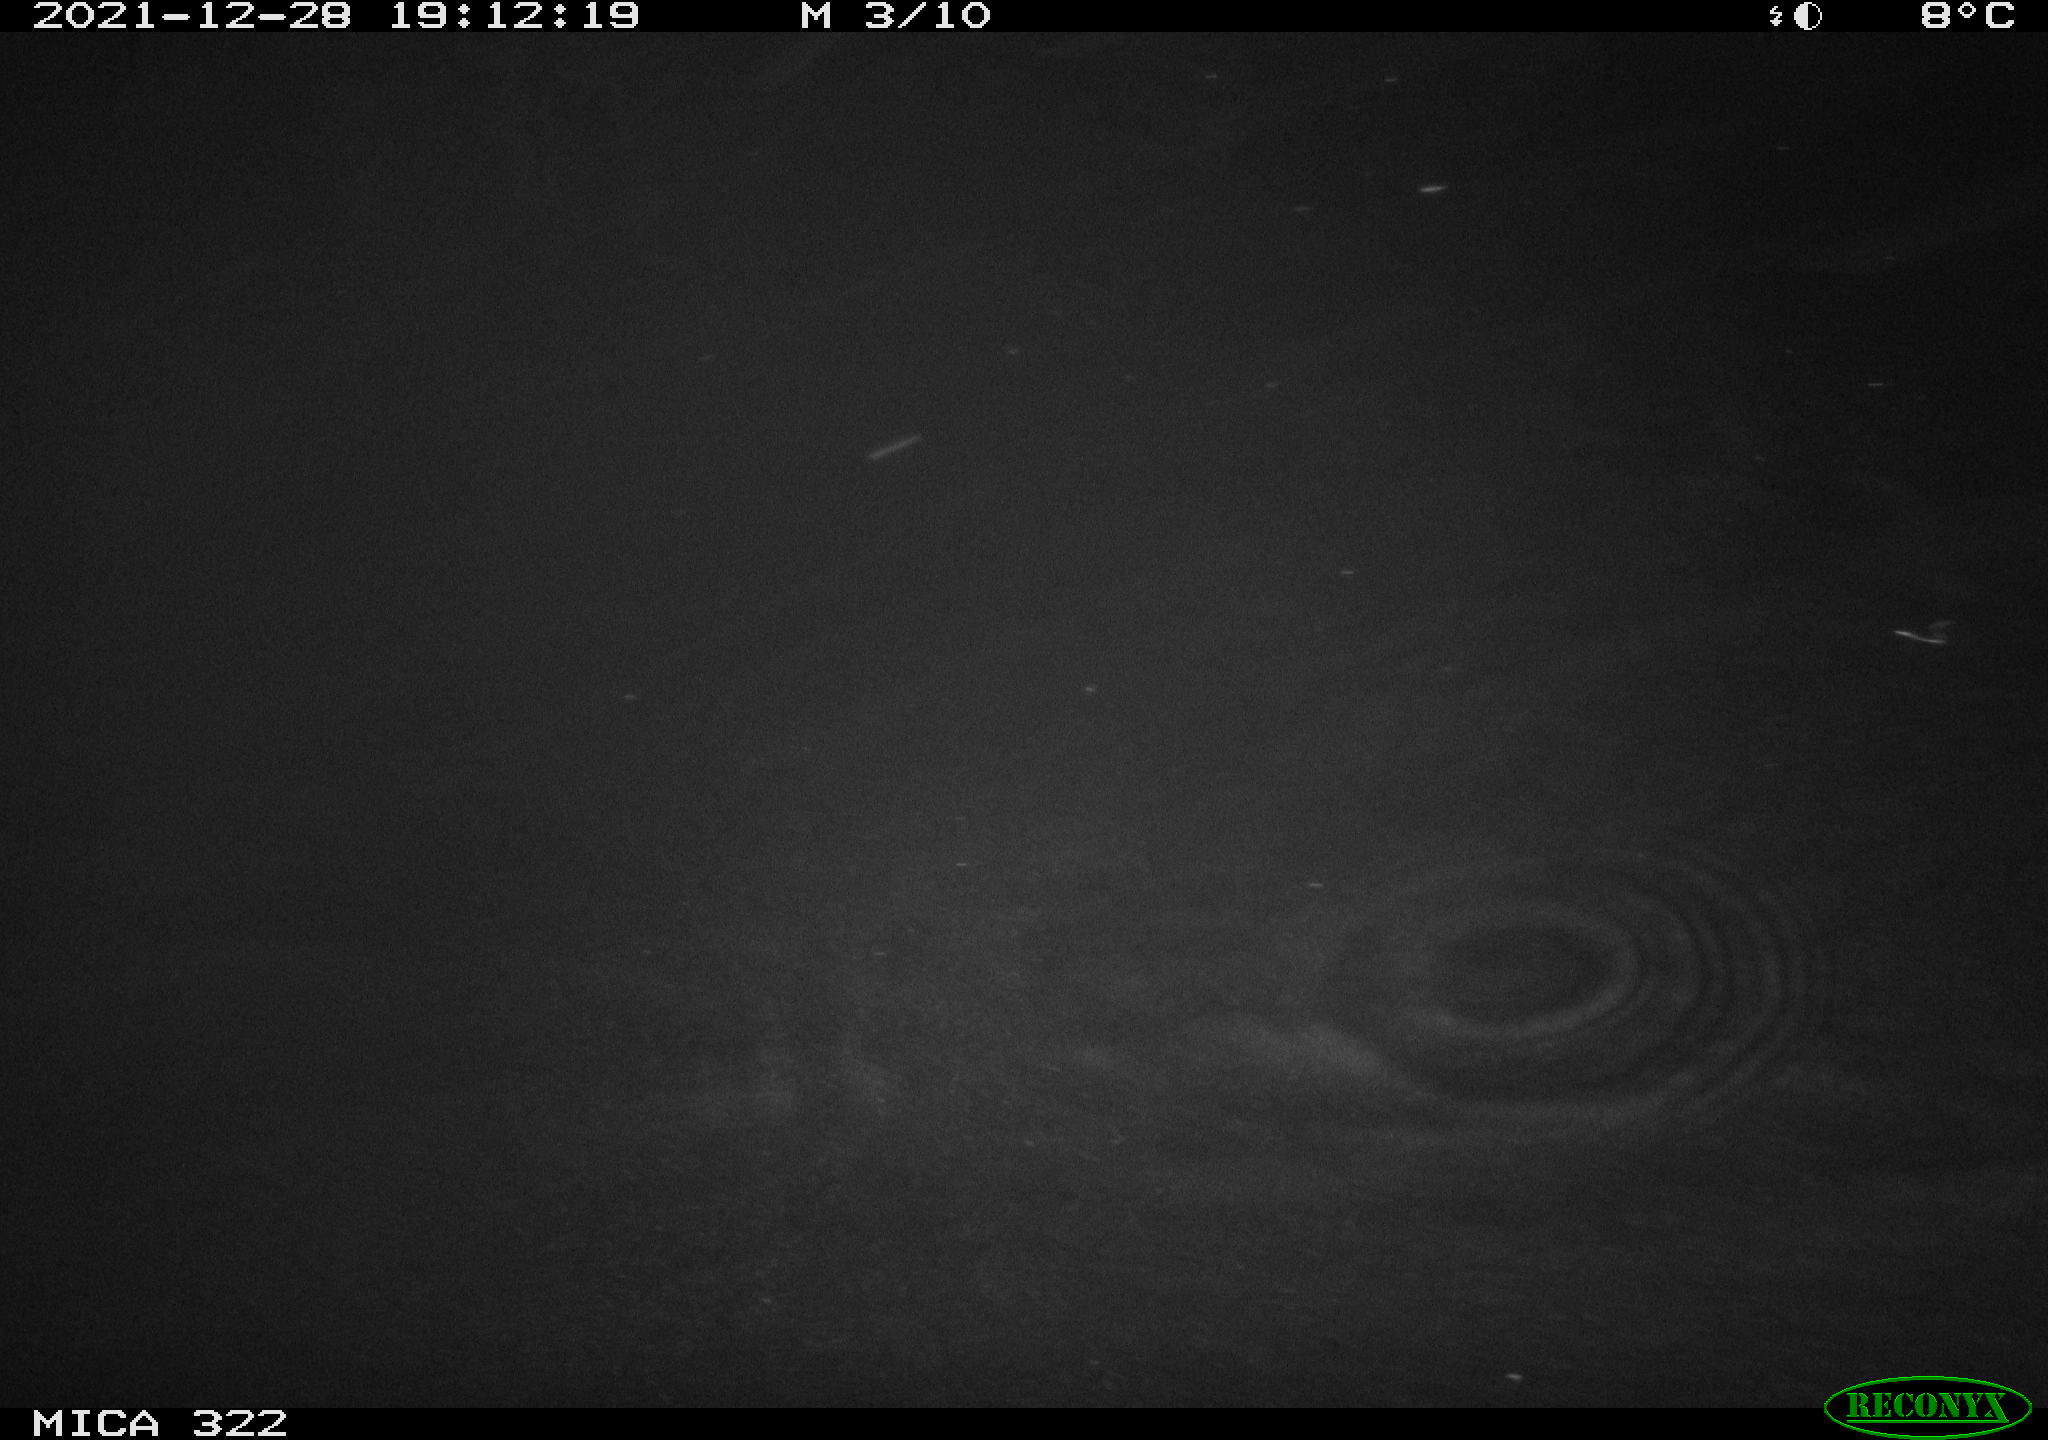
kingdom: Animalia
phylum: Chordata
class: Mammalia
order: Rodentia
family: Muridae
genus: Rattus
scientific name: Rattus norvegicus
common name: Brown rat
